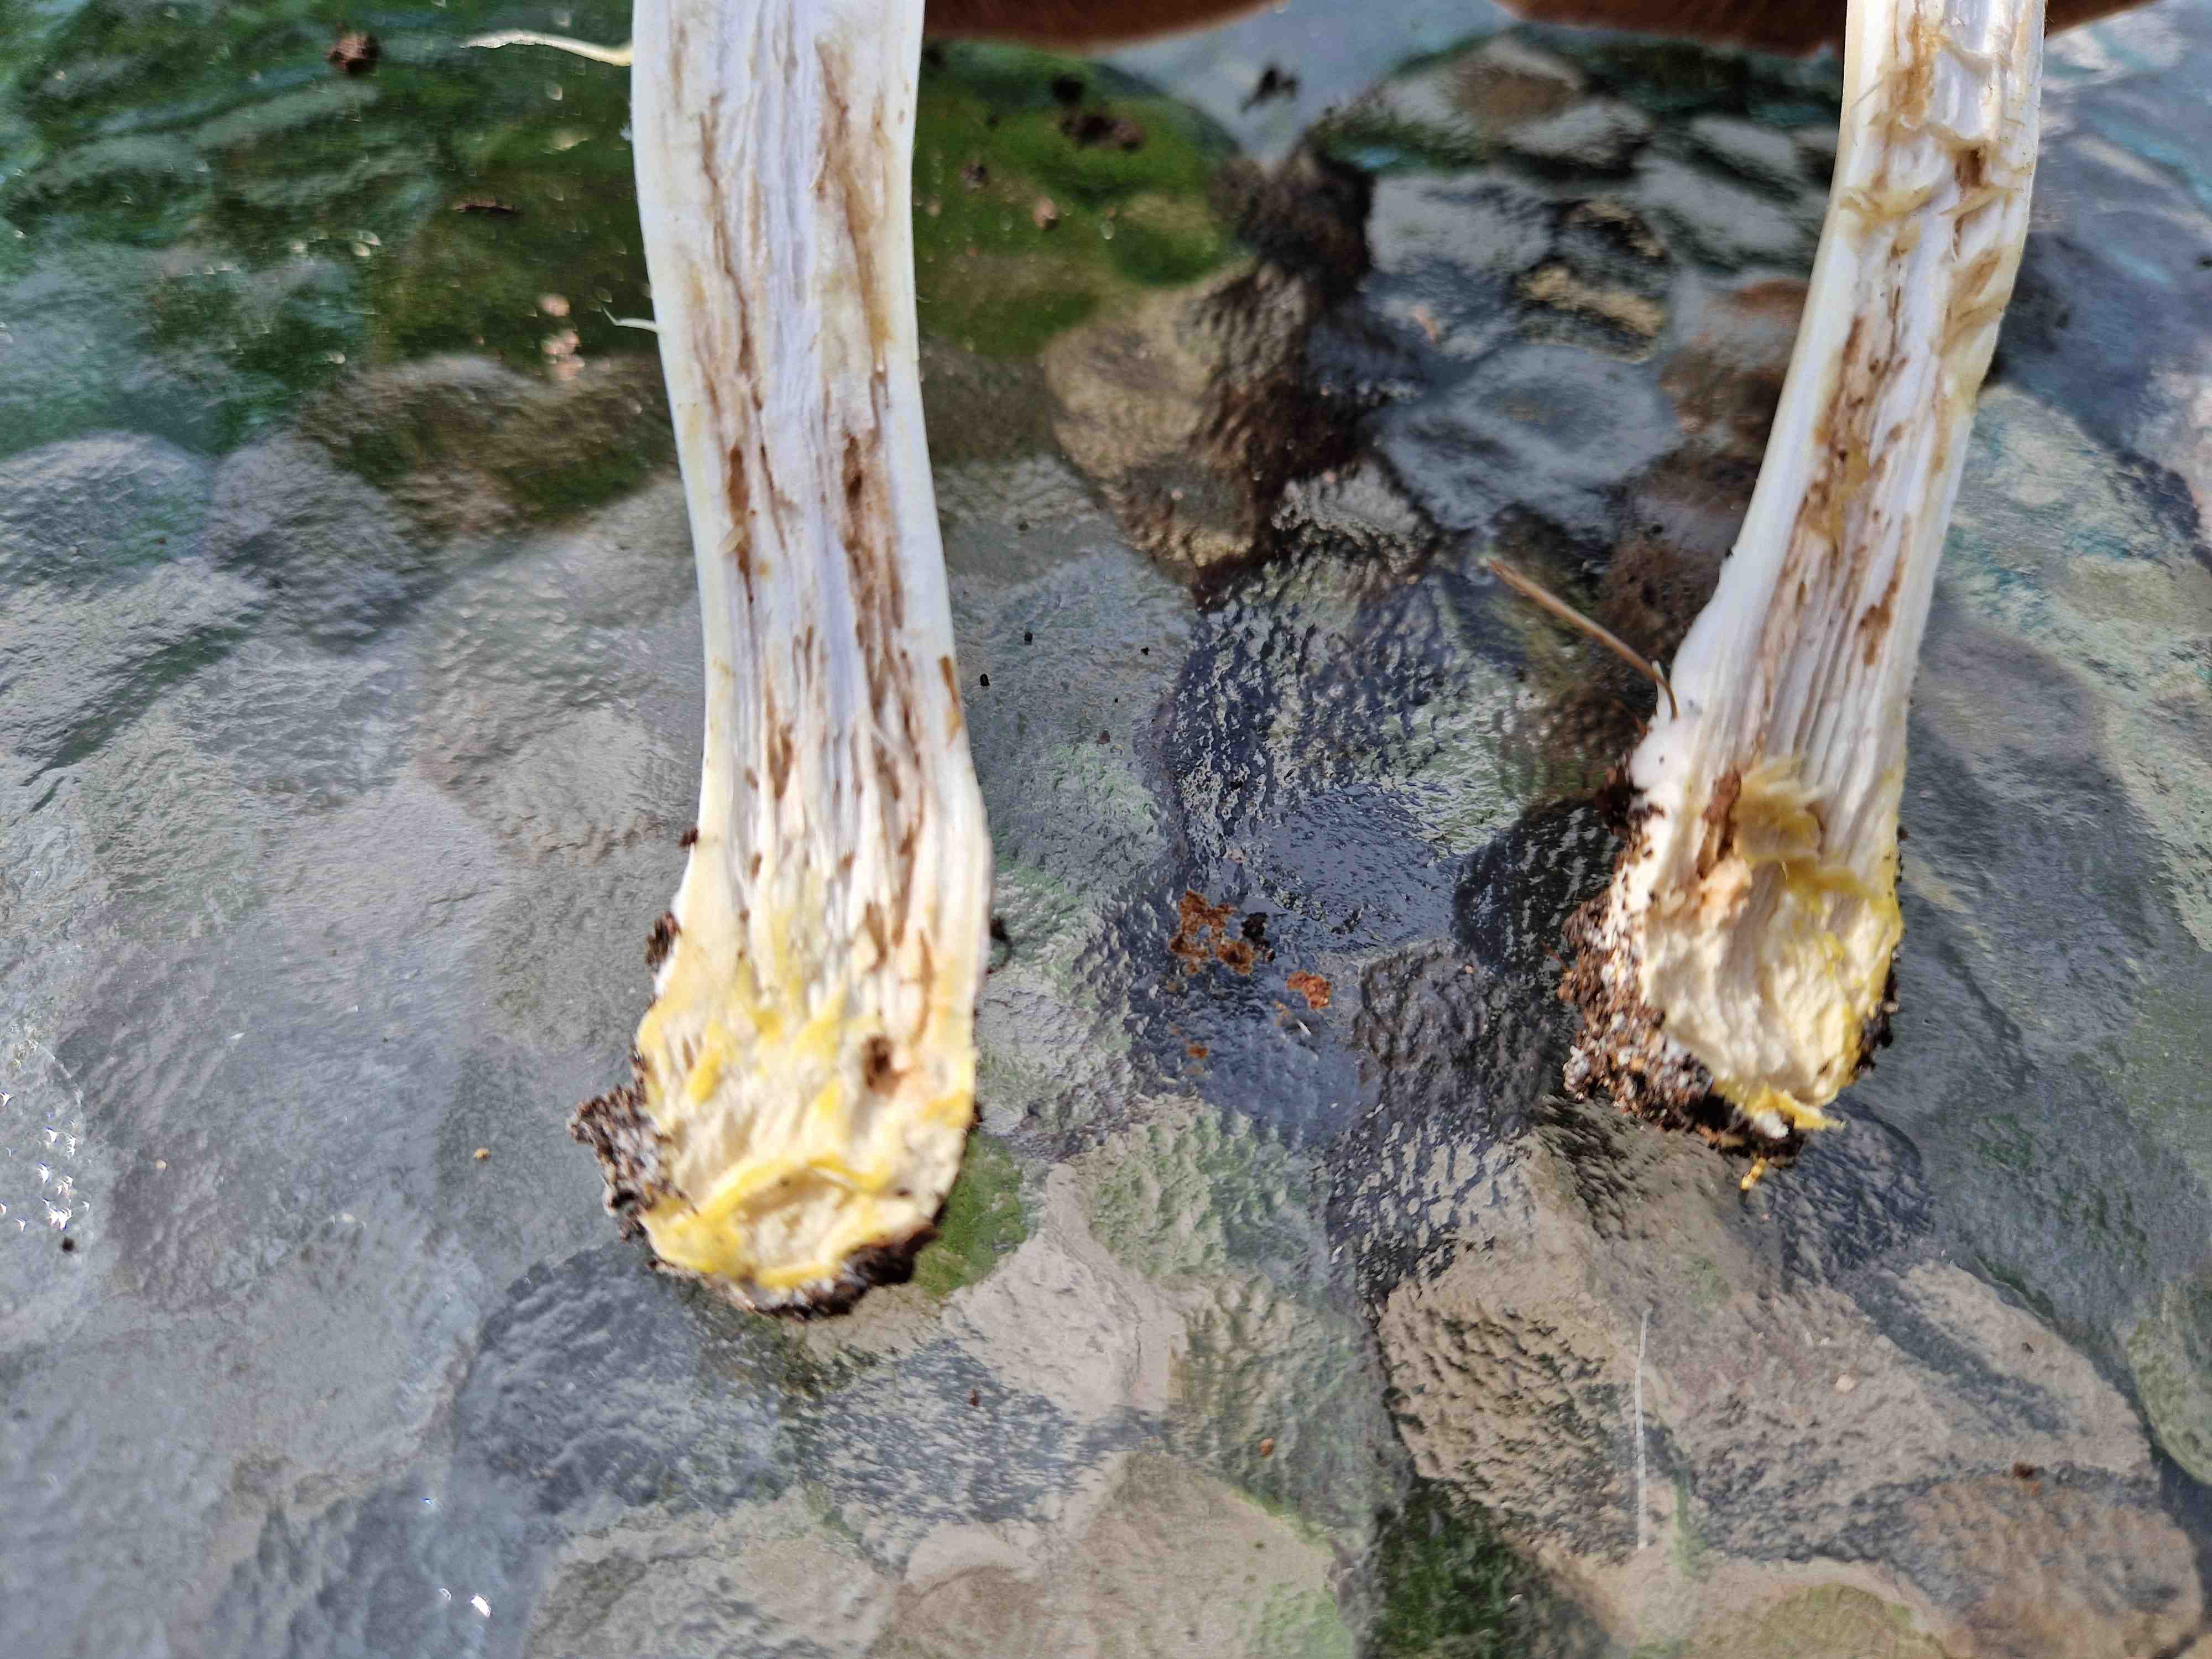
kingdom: Fungi
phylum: Basidiomycota
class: Agaricomycetes
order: Agaricales
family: Agaricaceae
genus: Agaricus
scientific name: Agaricus xanthodermus
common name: karbol-champignon
